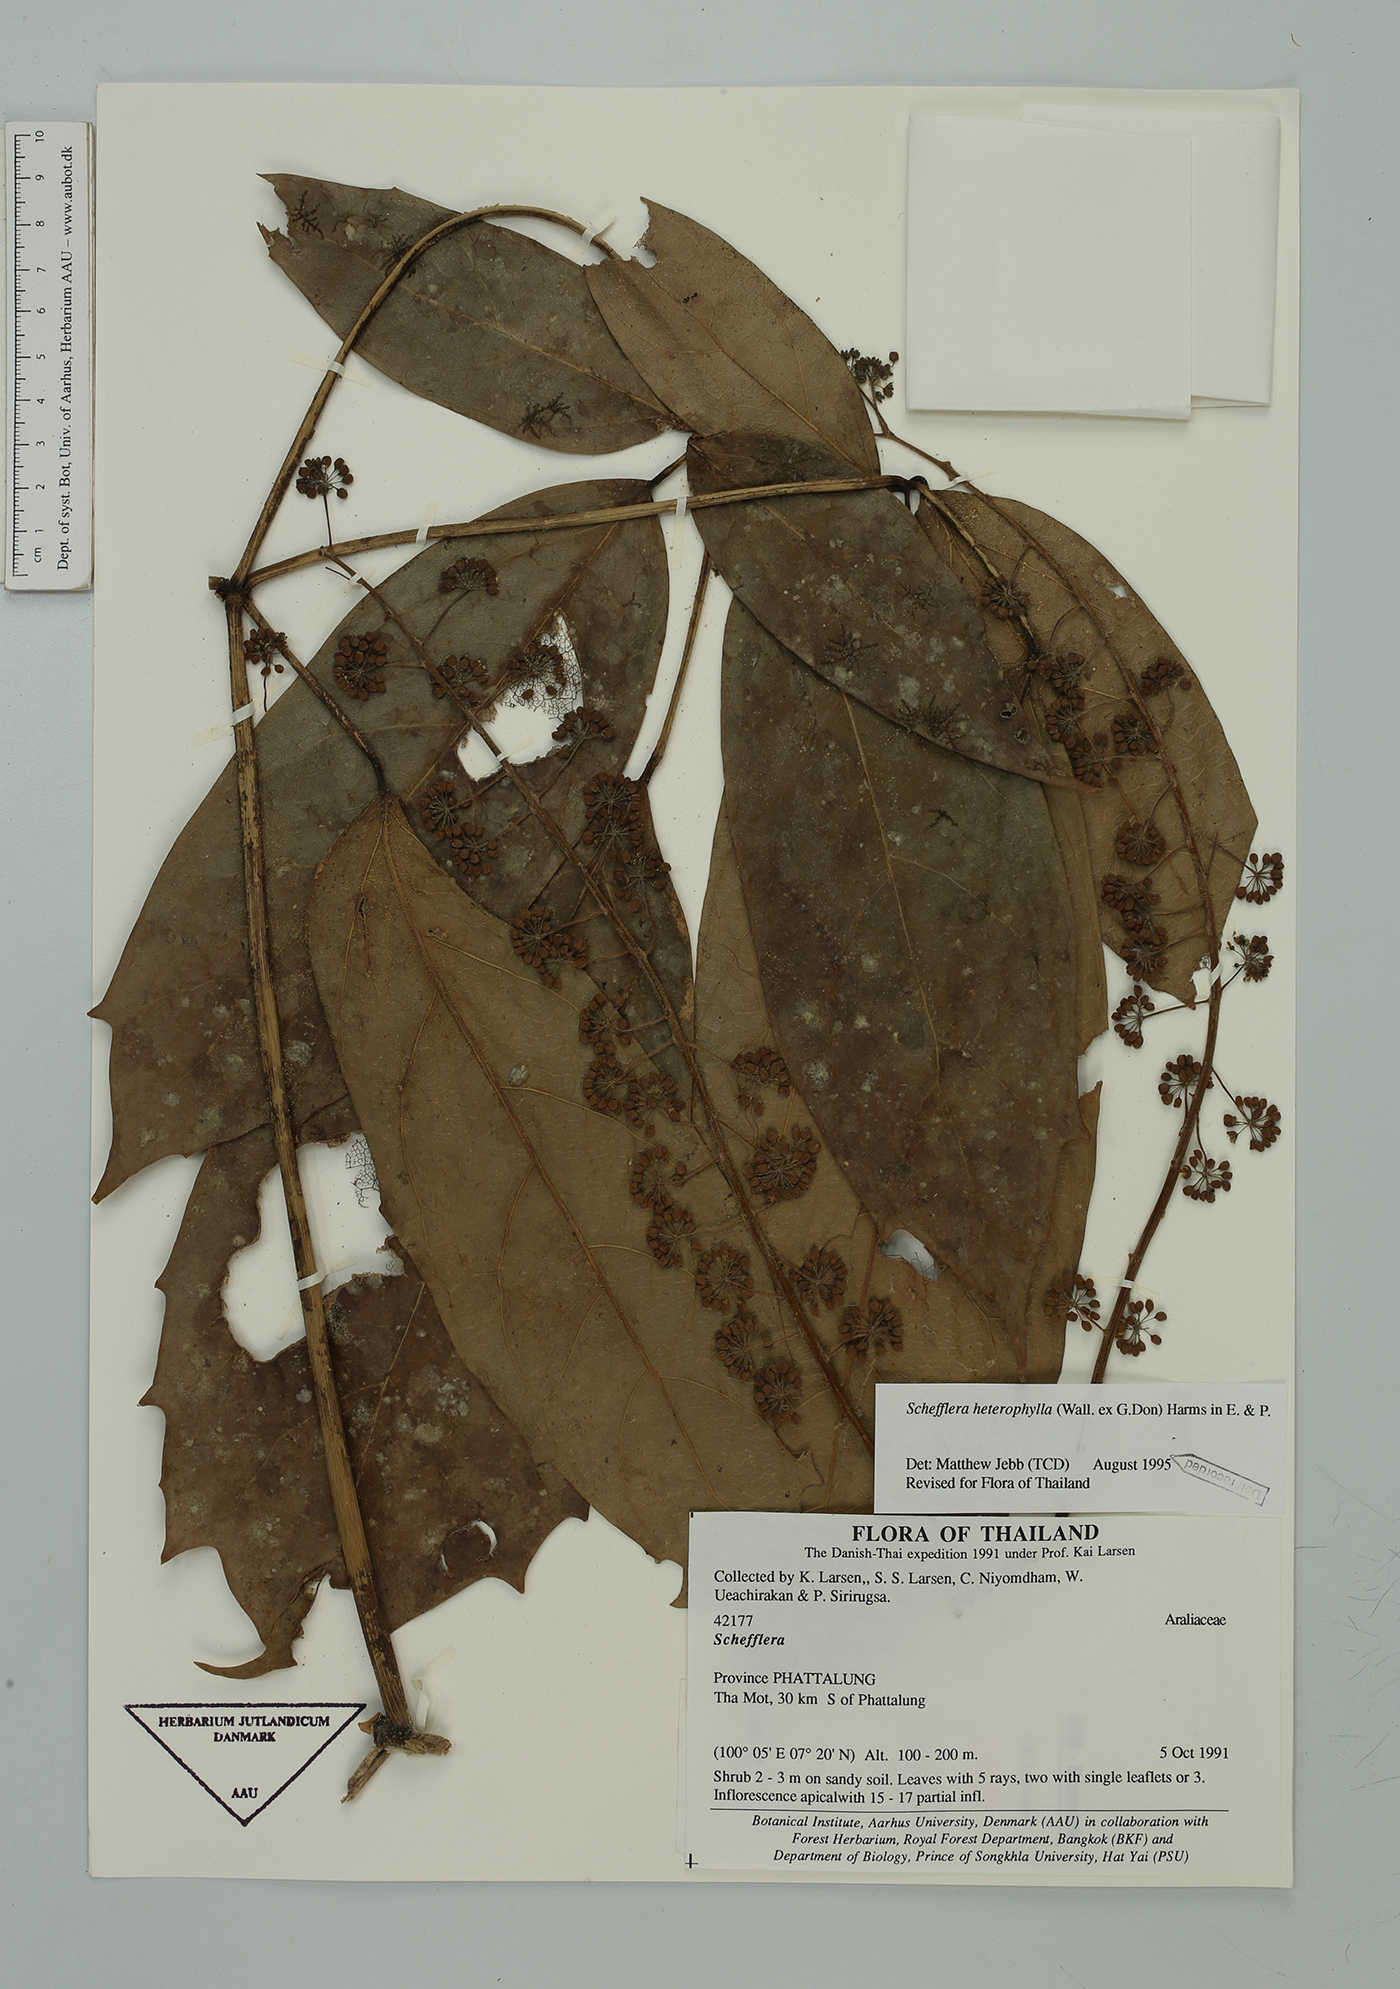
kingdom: Plantae
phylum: Tracheophyta
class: Magnoliopsida
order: Apiales
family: Araliaceae
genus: Heptapleurum
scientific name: Heptapleurum heterophyllum
